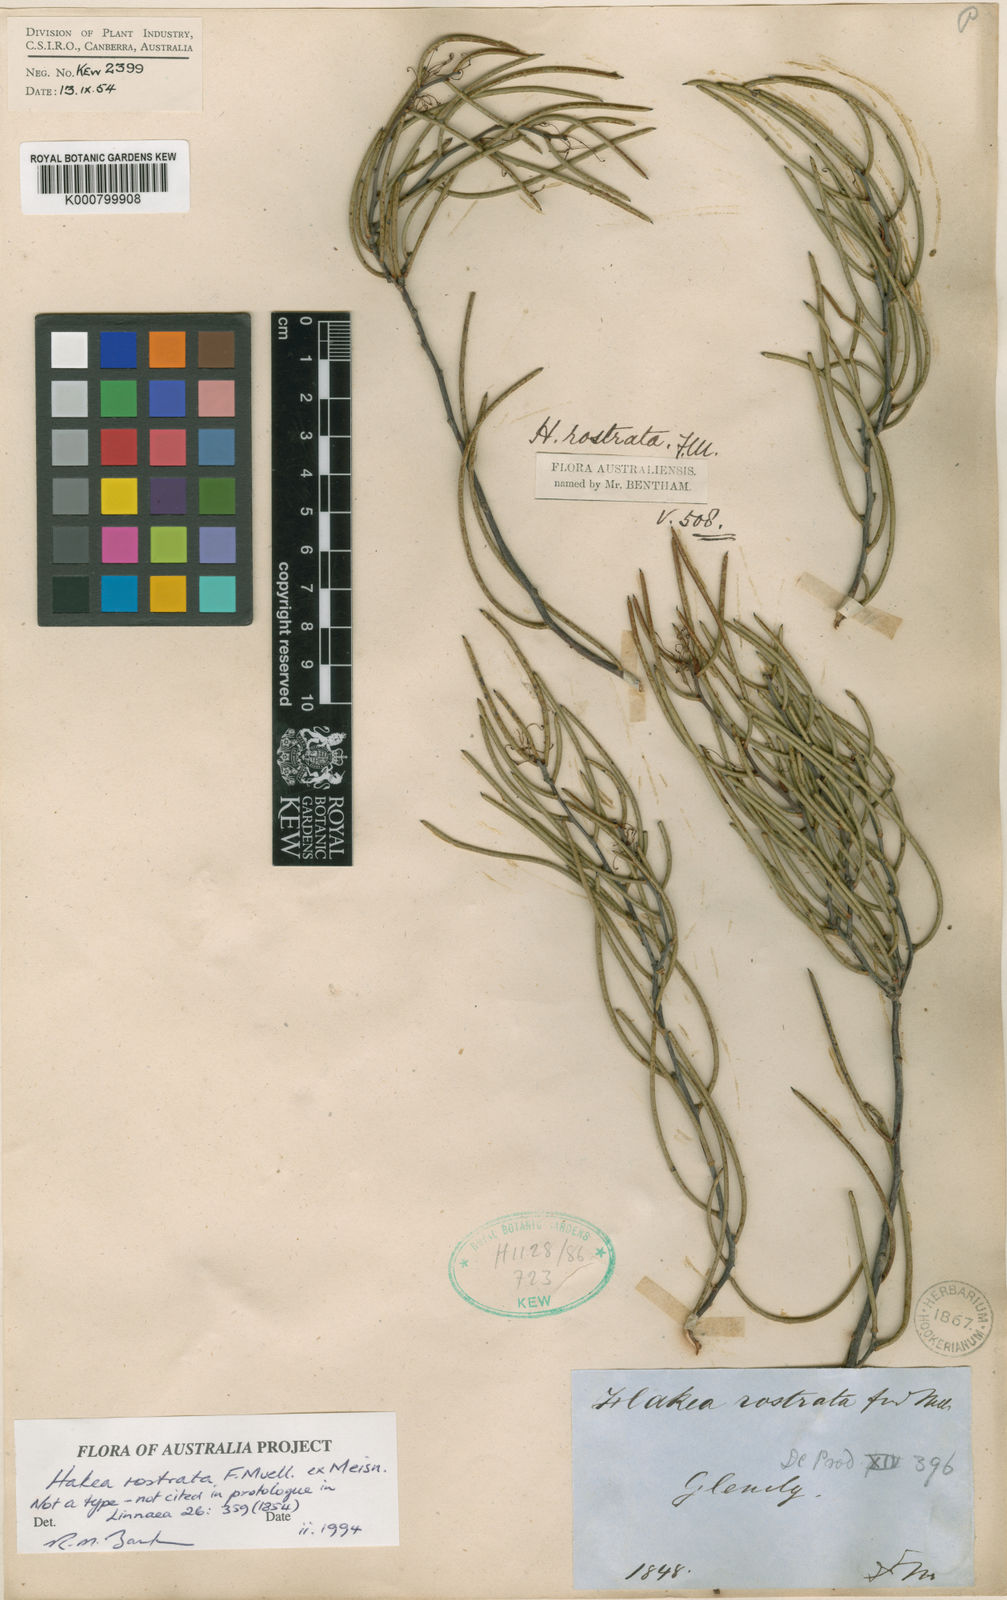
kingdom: Plantae
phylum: Tracheophyta
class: Magnoliopsida
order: Proteales
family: Proteaceae
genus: Hakea
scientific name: Hakea rostrata
